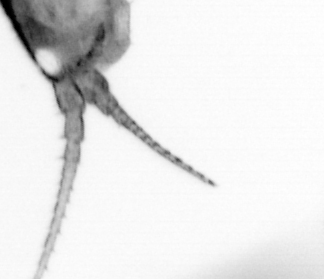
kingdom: Animalia
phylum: Arthropoda
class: Copepoda
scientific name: Copepoda
